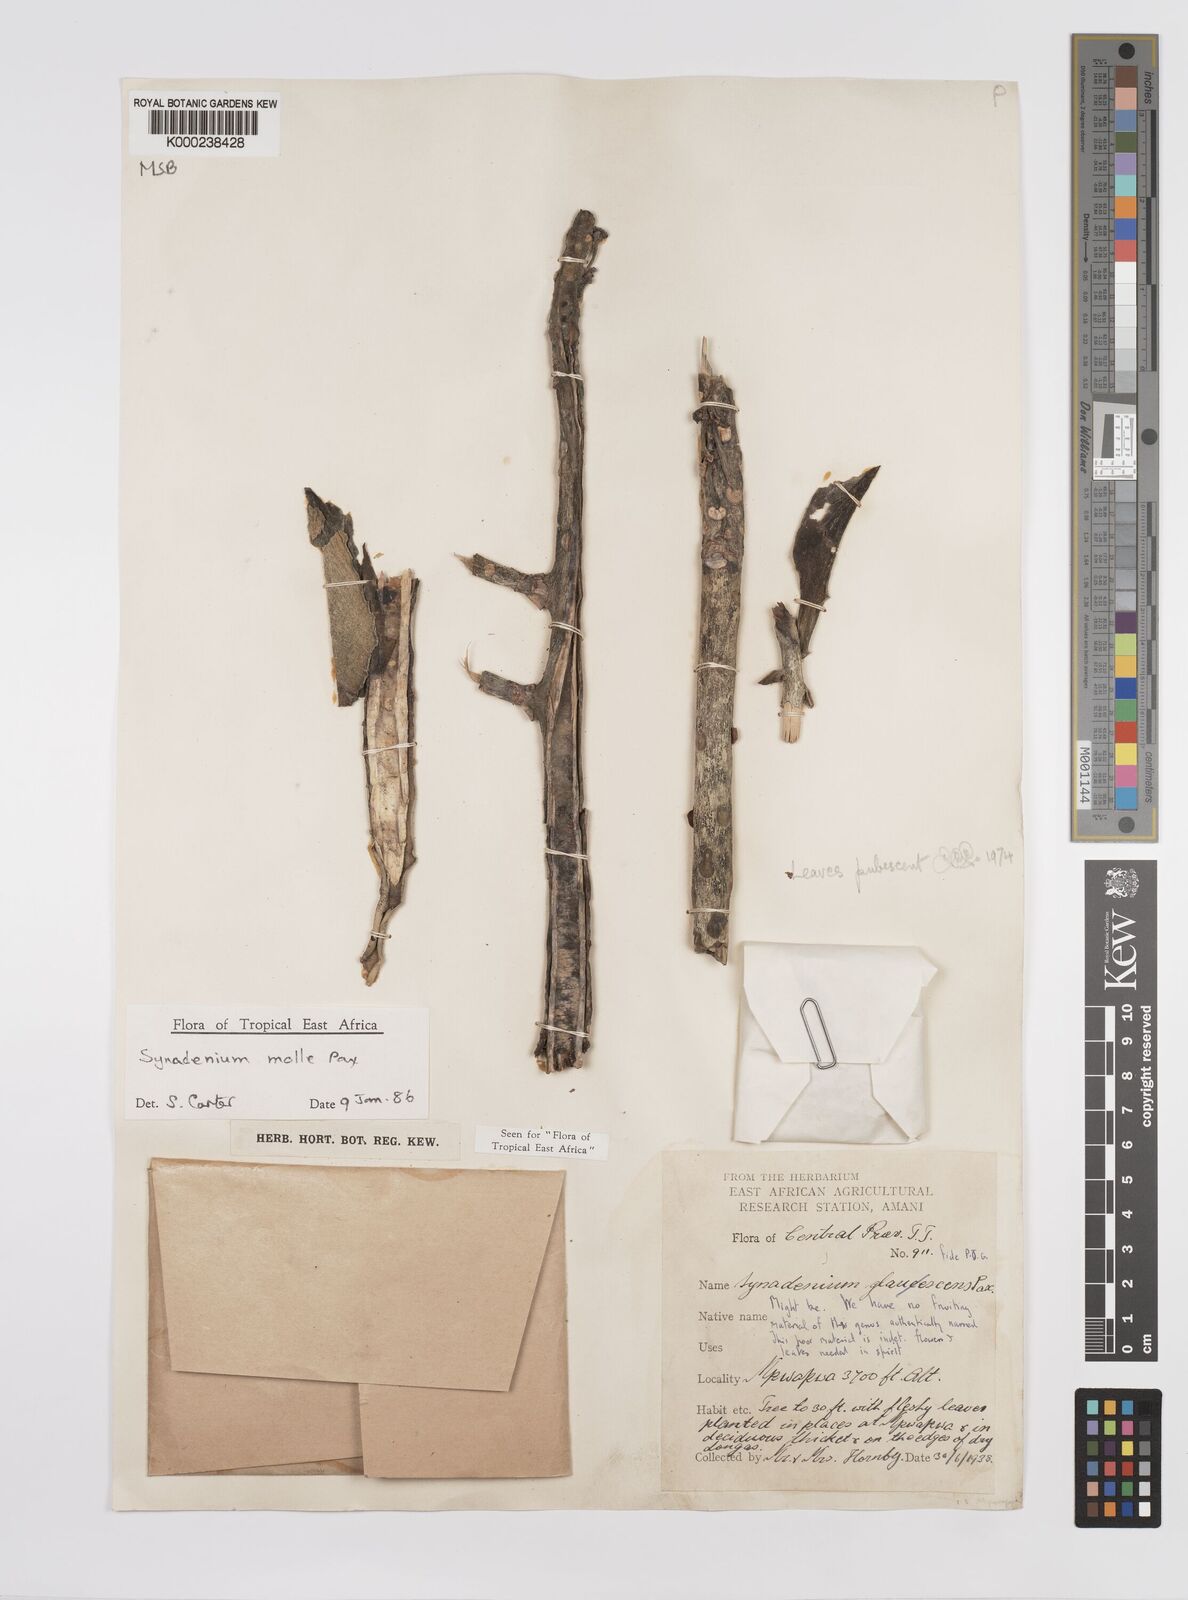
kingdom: Plantae
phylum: Tracheophyta
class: Magnoliopsida
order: Malpighiales
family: Euphorbiaceae
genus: Euphorbia
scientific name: Euphorbia pseudomollis
